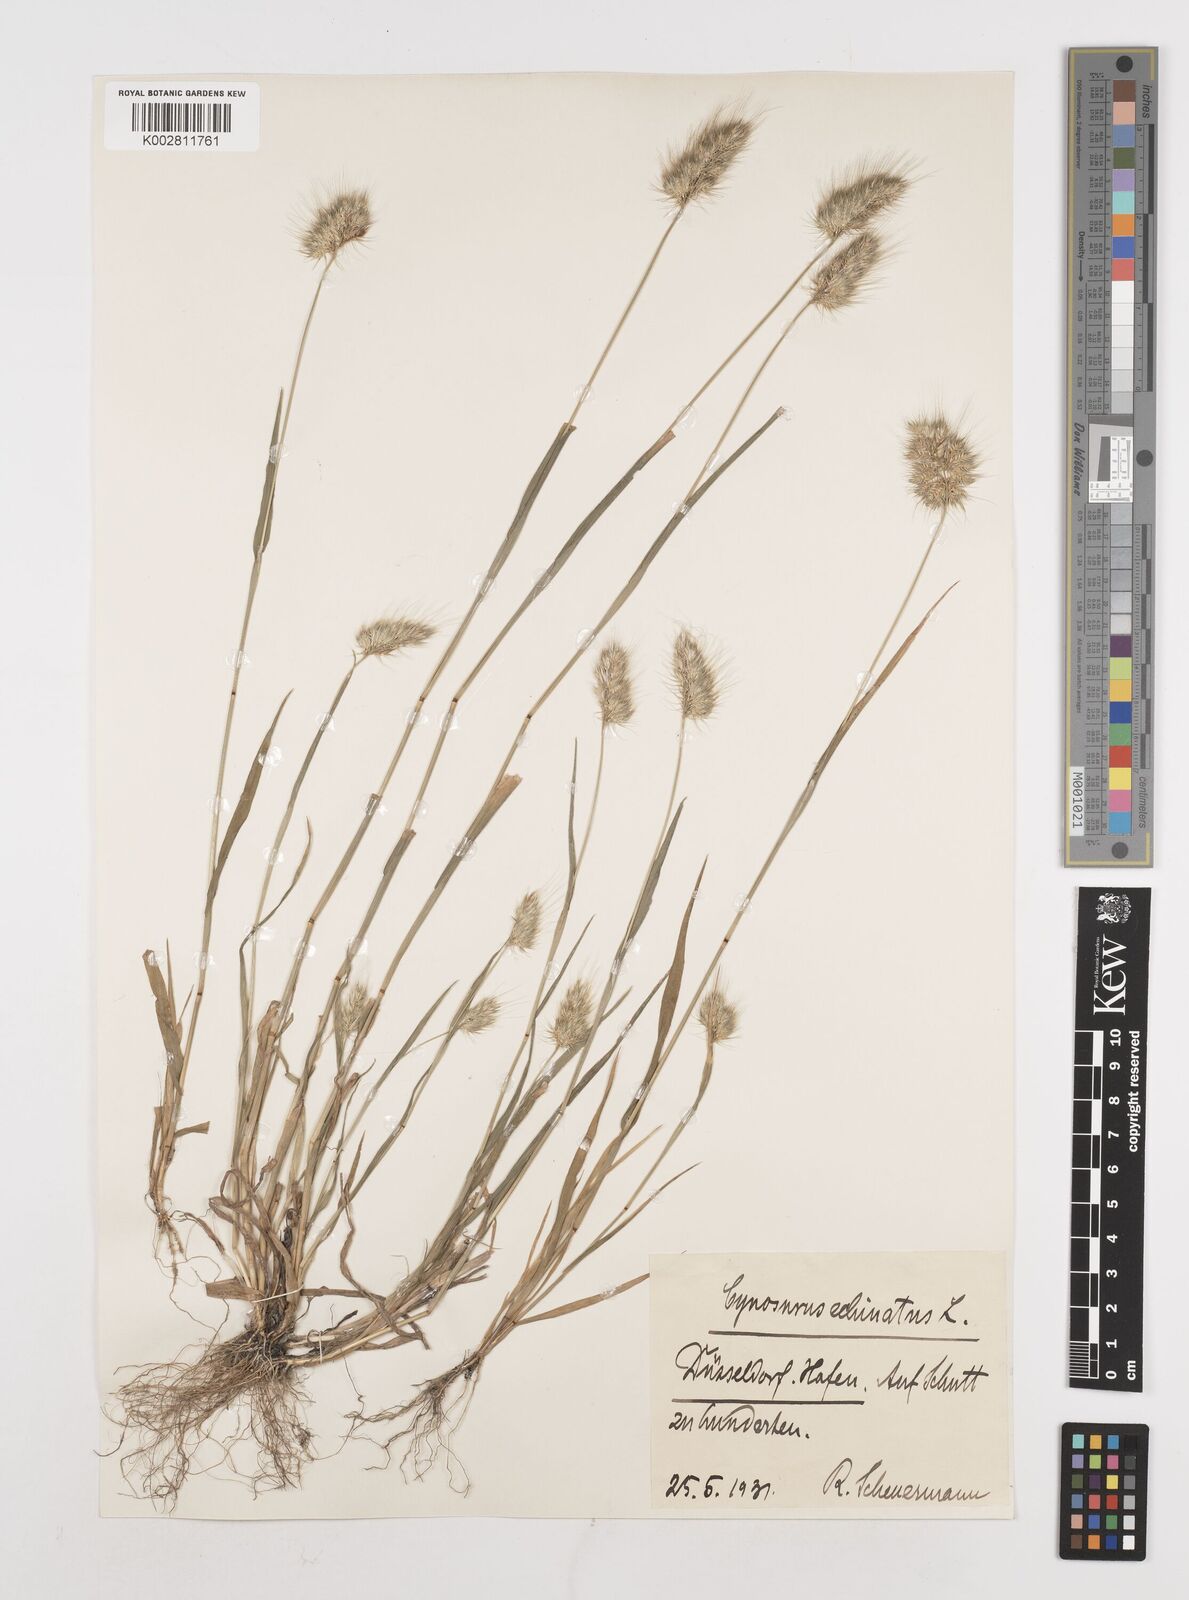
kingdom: Plantae
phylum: Tracheophyta
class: Liliopsida
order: Poales
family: Poaceae
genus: Cynosurus
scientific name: Cynosurus echinatus
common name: Rough dog's-tail
